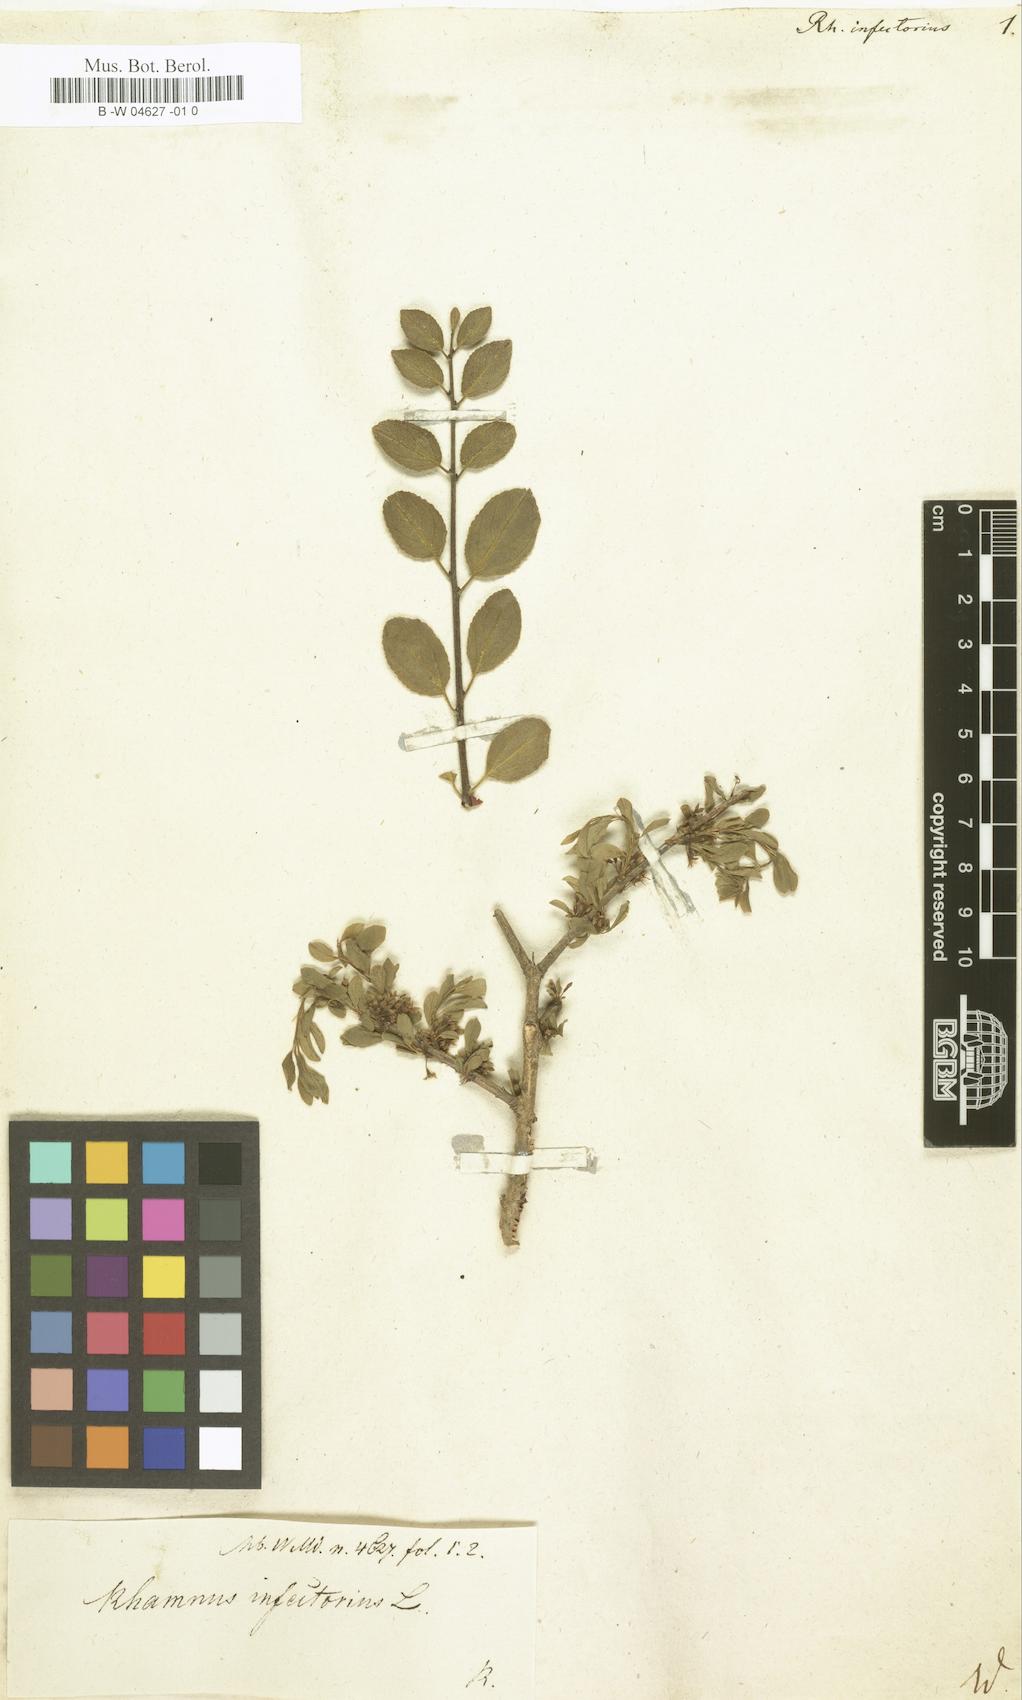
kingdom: Plantae
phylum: Tracheophyta
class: Magnoliopsida
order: Rosales
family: Rhamnaceae
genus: Rhamnus
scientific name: Rhamnus infectoria
